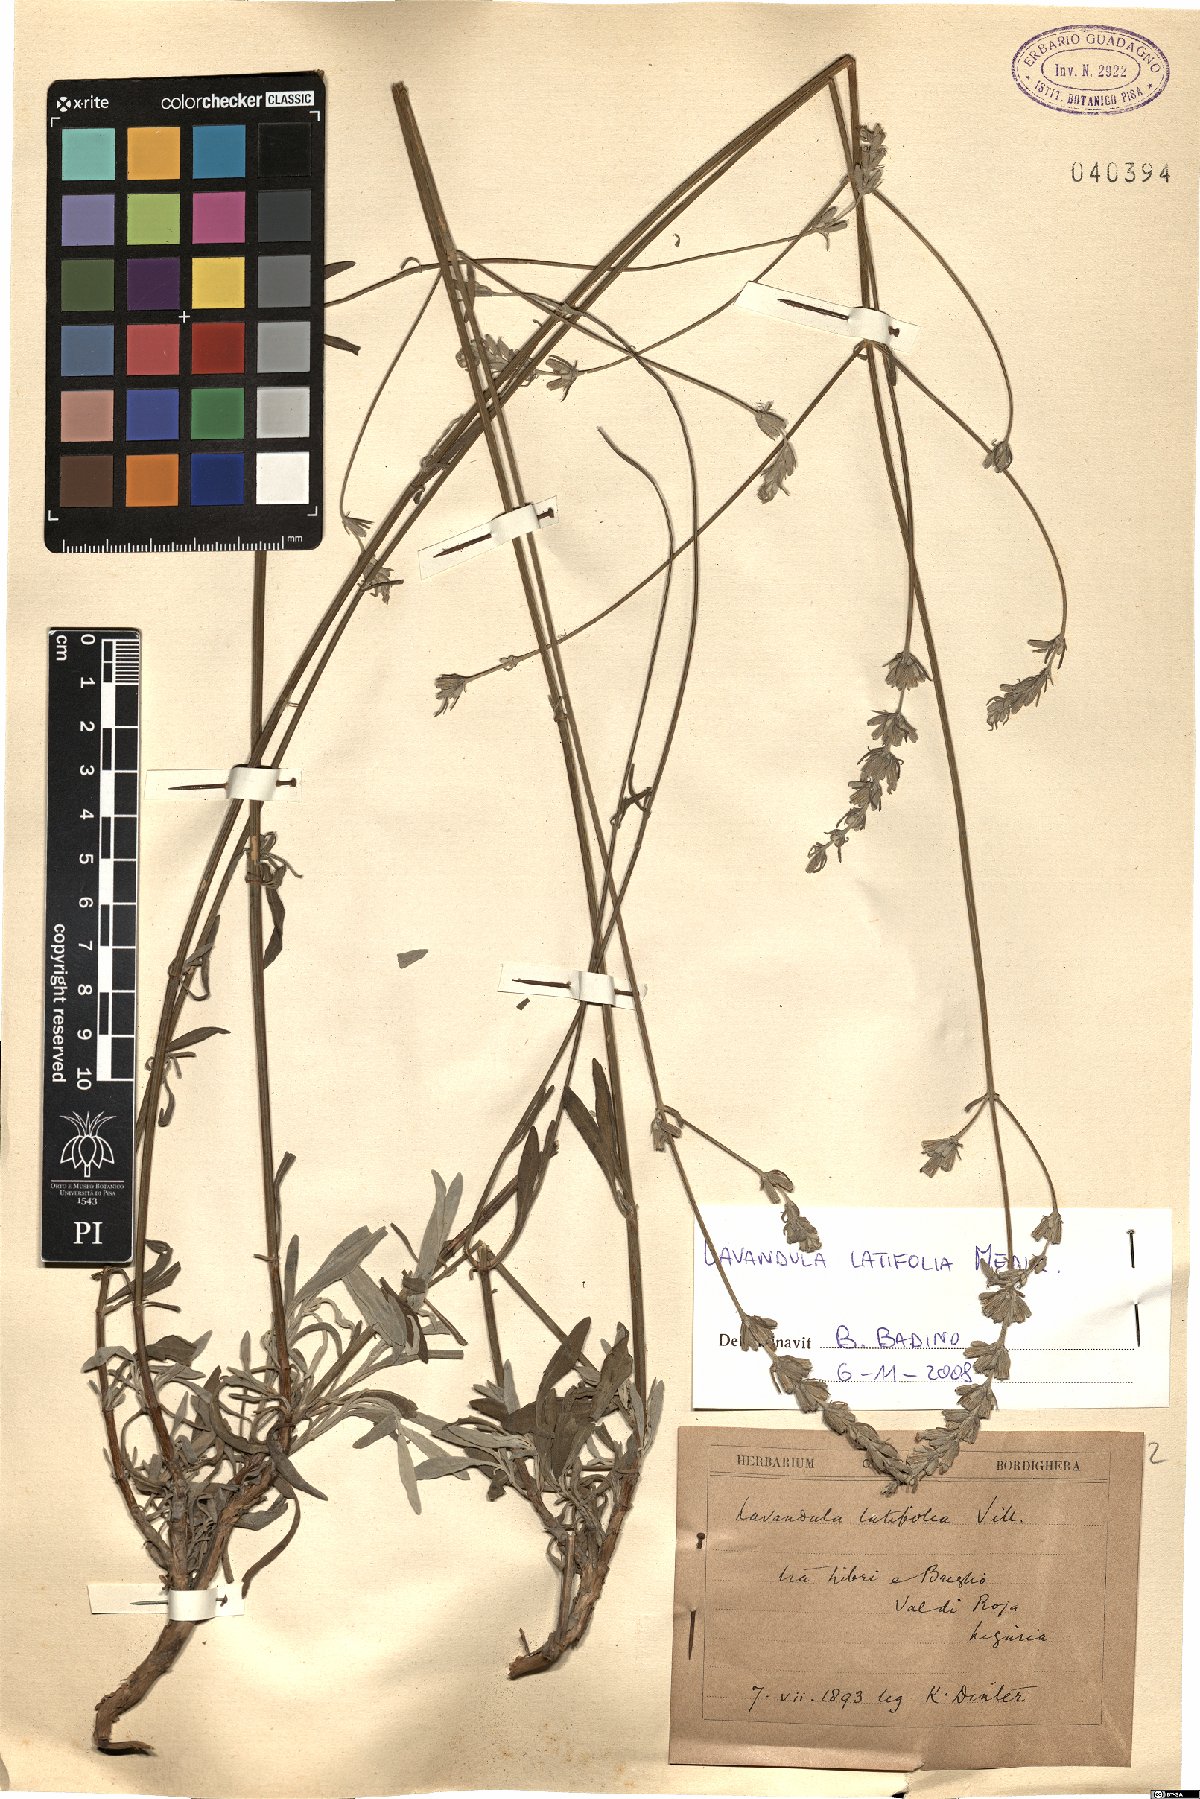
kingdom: Plantae
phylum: Tracheophyta
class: Magnoliopsida
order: Lamiales
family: Lamiaceae
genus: Lavandula
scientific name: Lavandula latifolia
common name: Spike lavendar
